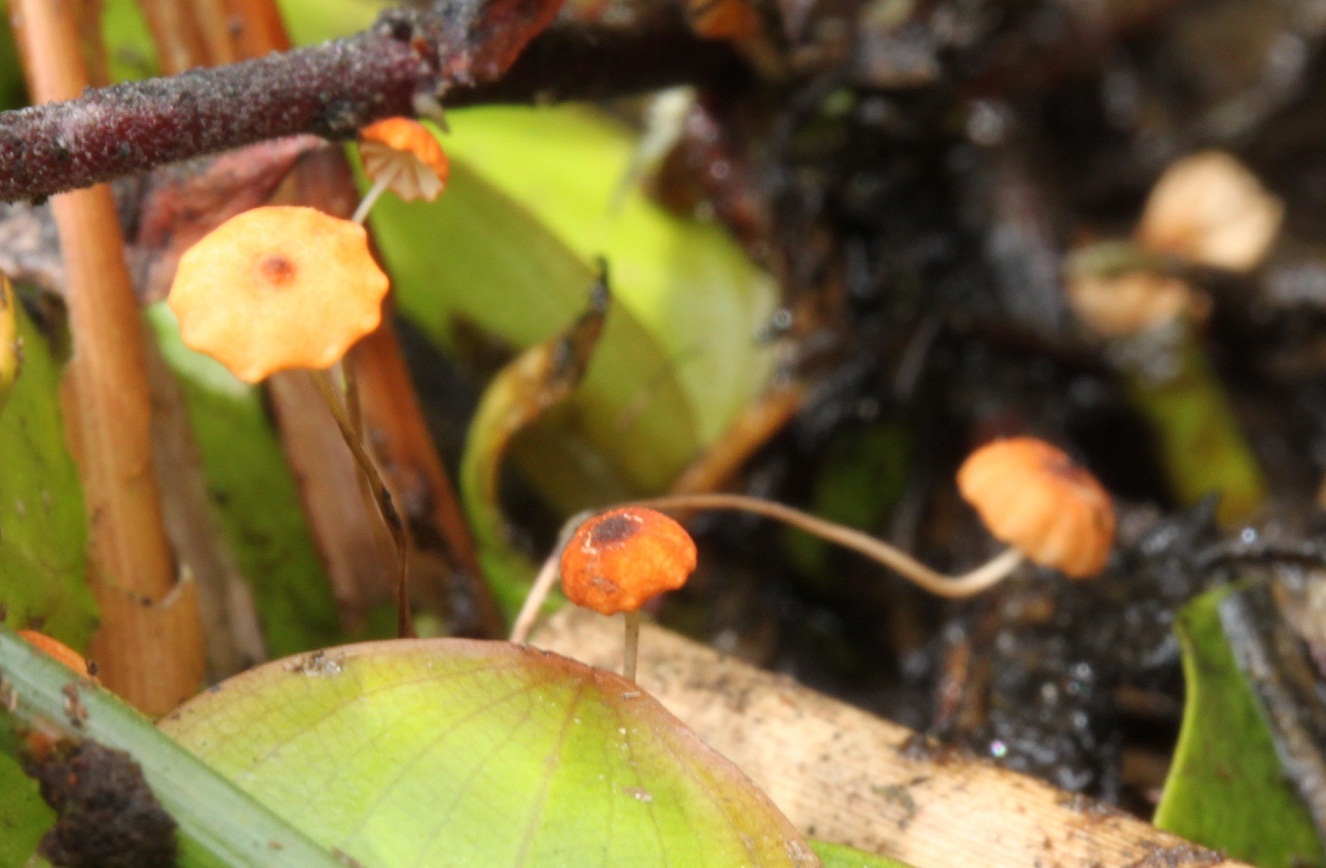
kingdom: Fungi
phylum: Basidiomycota
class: Agaricomycetes
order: Agaricales
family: Marasmiaceae
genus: Marasmius
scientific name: Marasmius curreyi
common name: teglrød bruskhat
